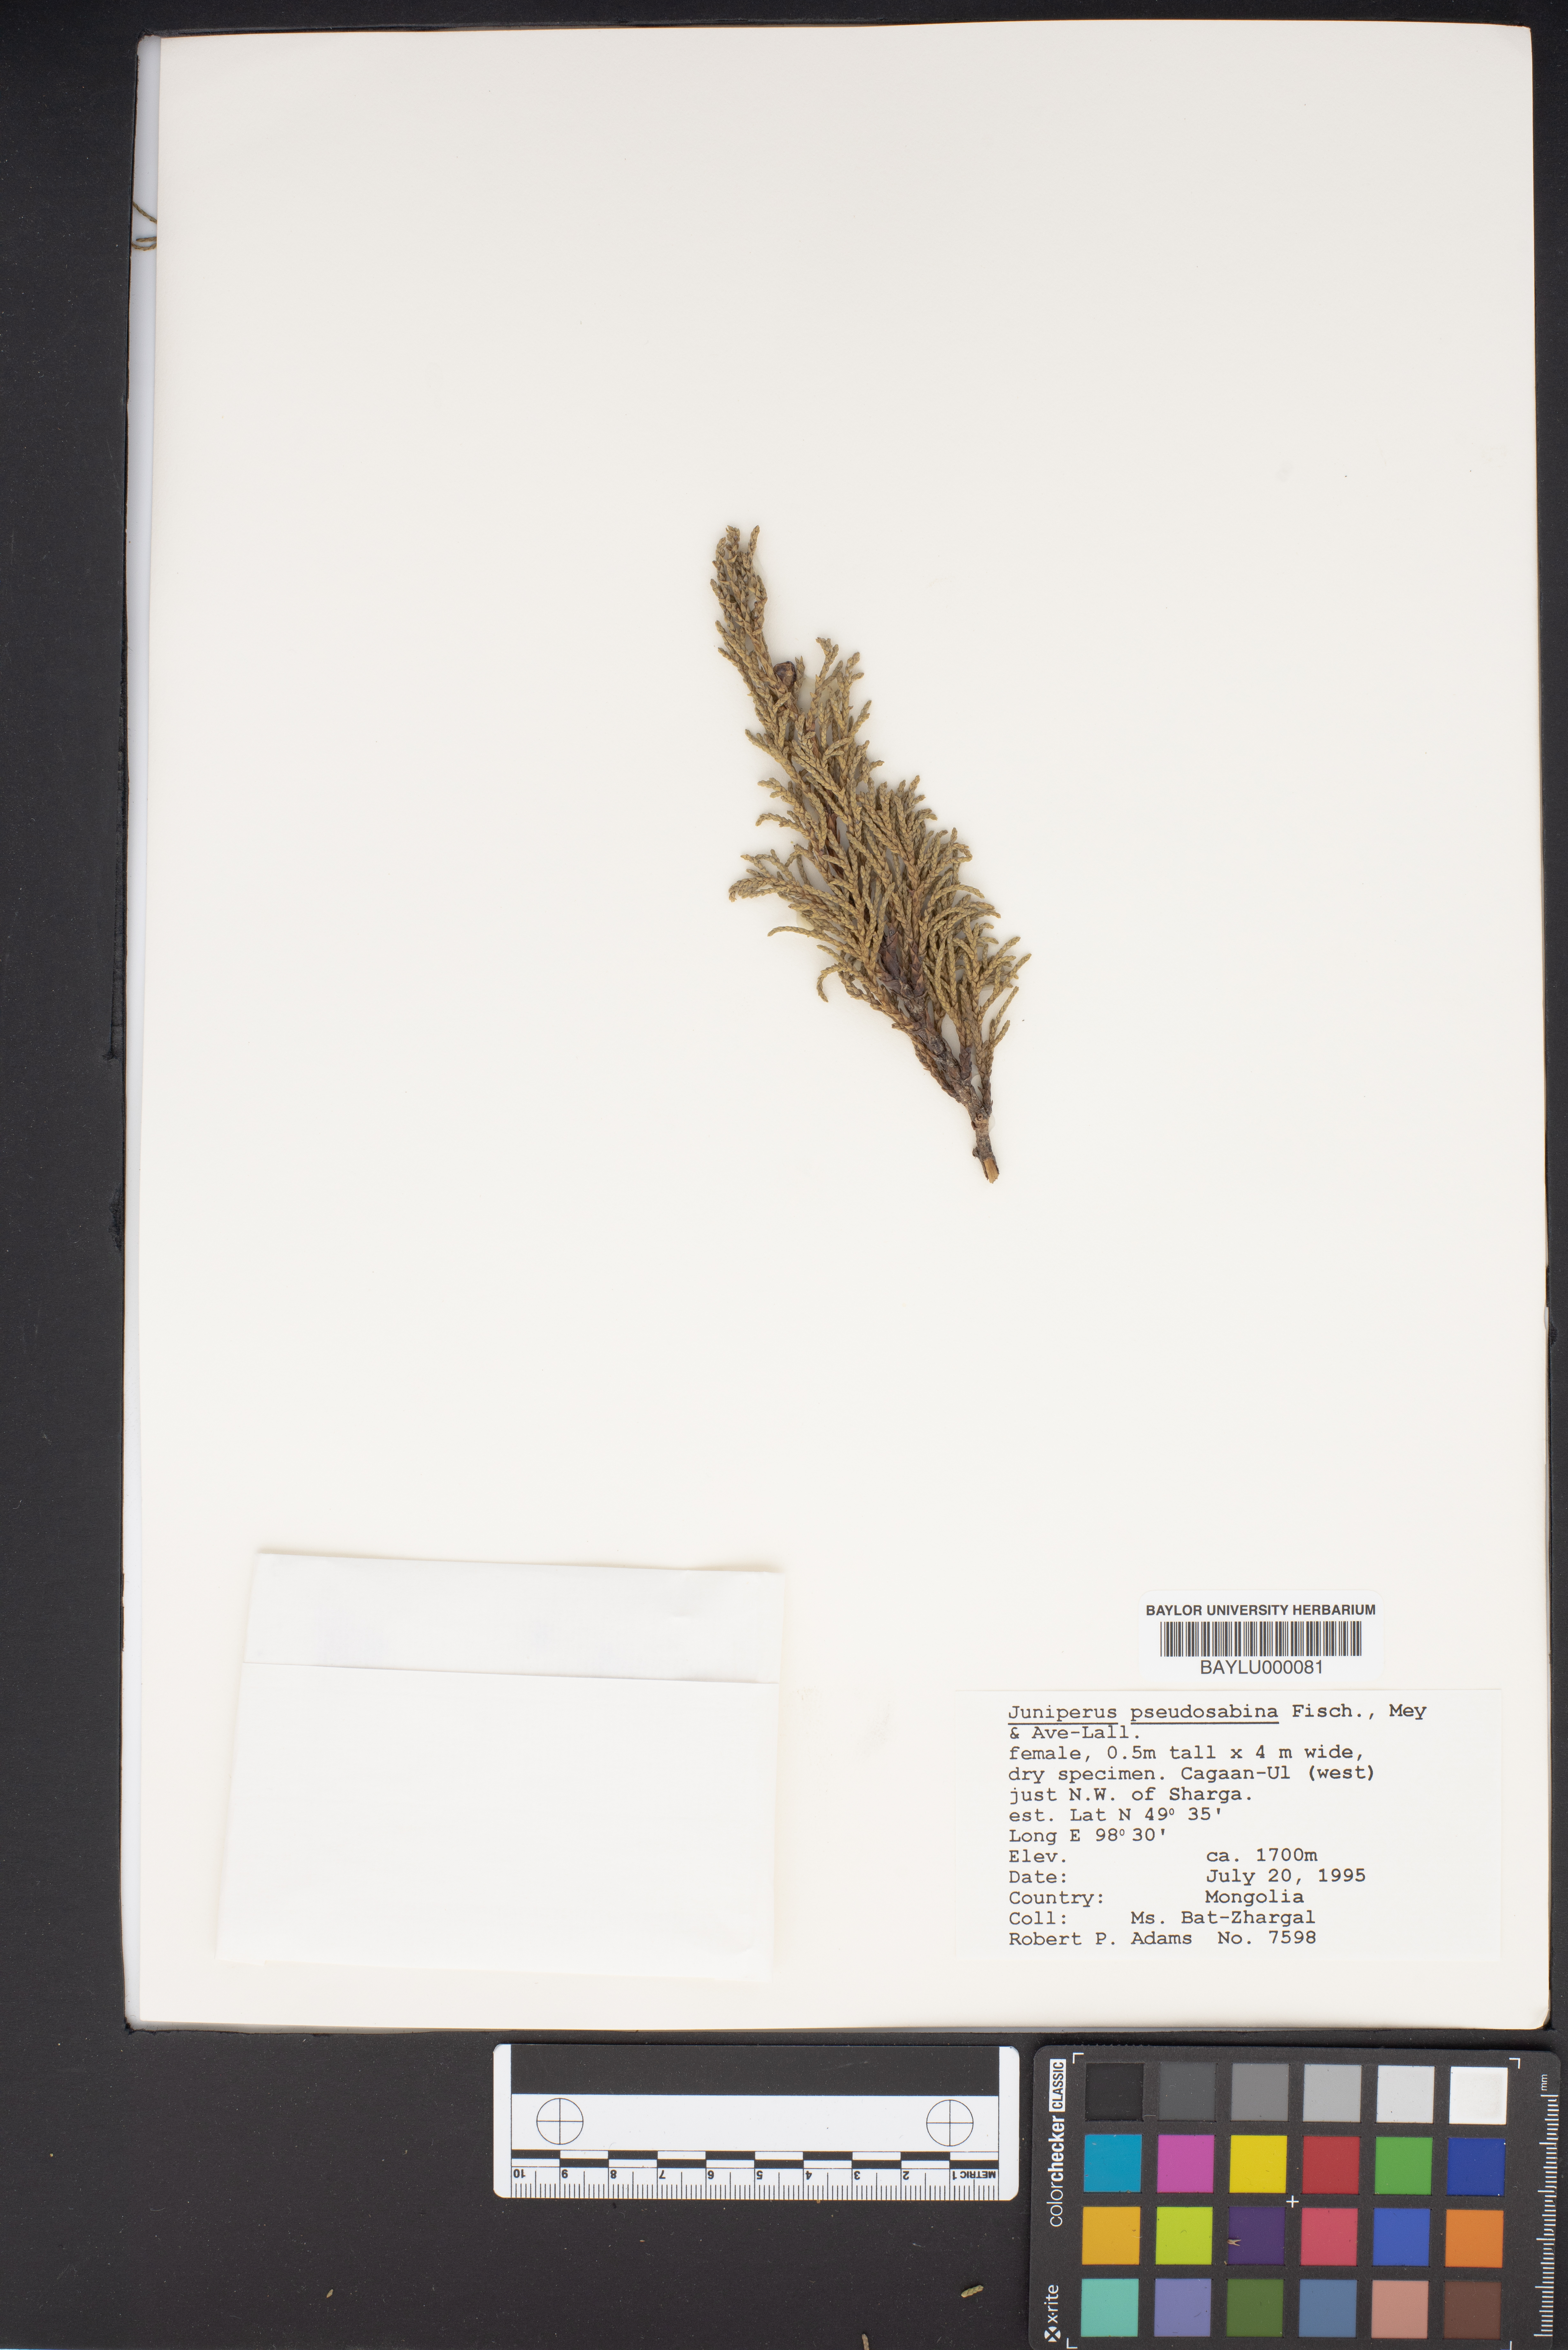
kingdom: Plantae
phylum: Tracheophyta
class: Pinopsida
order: Pinales
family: Cupressaceae
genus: Juniperus
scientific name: Juniperus pseudosabina
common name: Turkestan juniper
